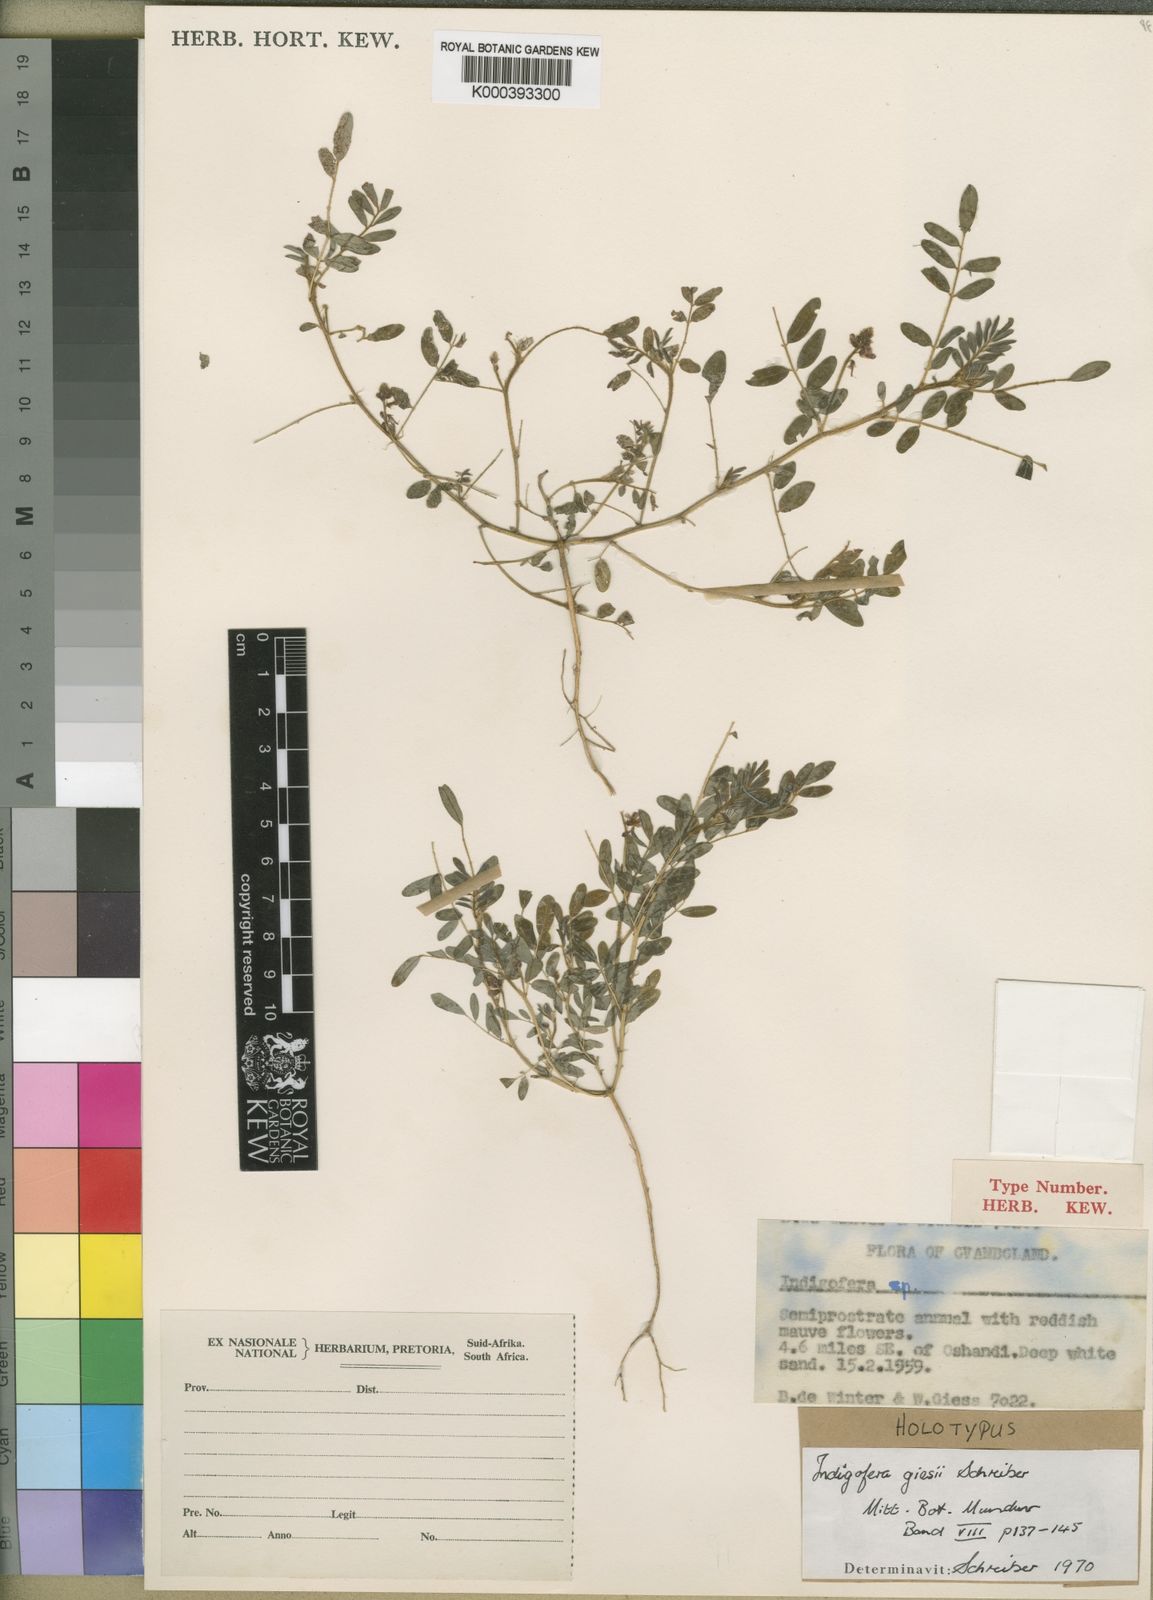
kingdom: Plantae
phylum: Tracheophyta
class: Magnoliopsida
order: Fabales
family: Fabaceae
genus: Indigofera
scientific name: Indigofera giessii
